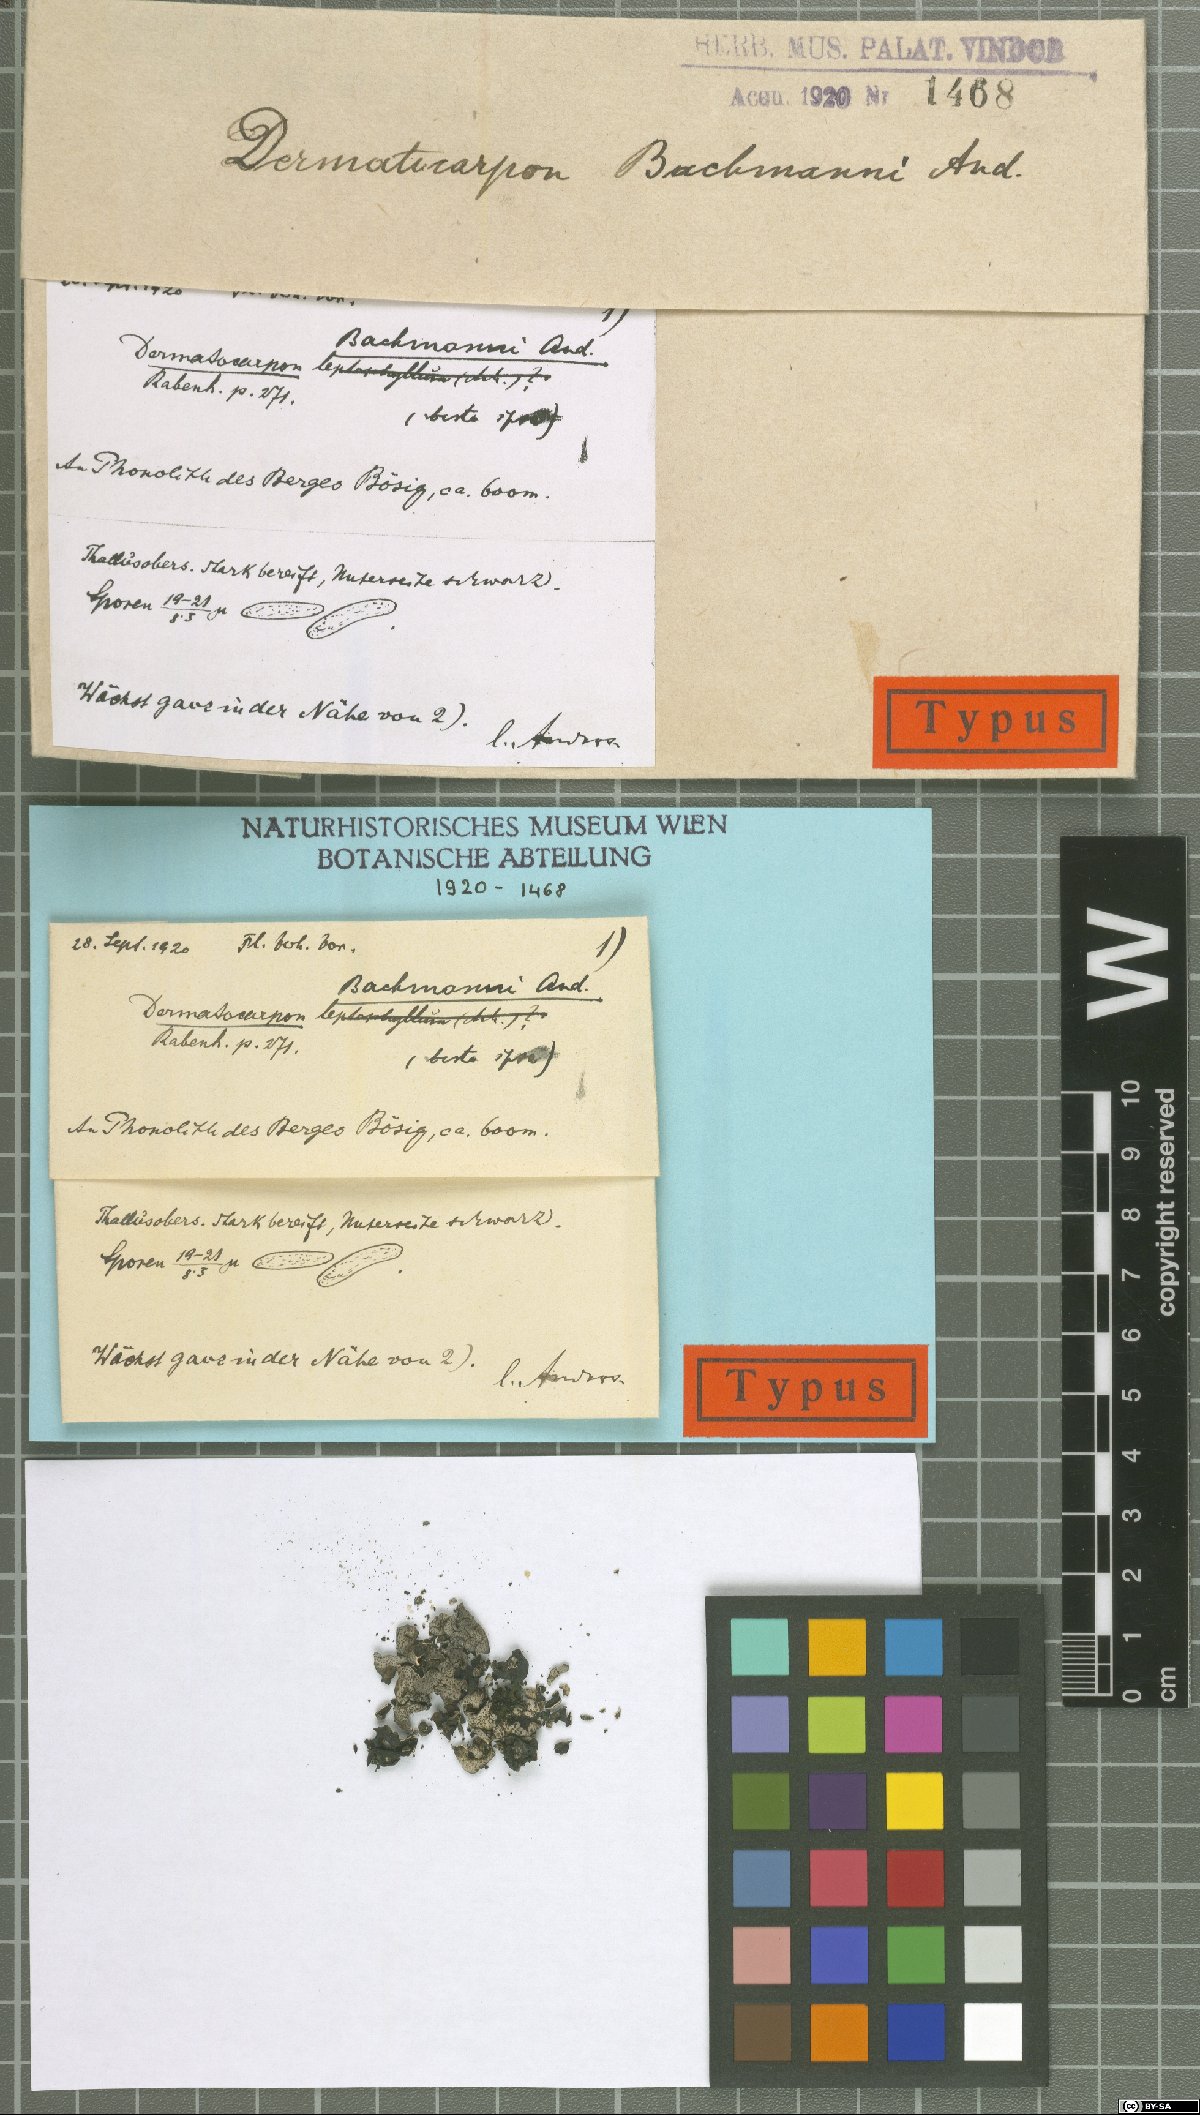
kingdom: Fungi
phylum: Ascomycota
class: Eurotiomycetes
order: Verrucariales
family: Verrucariaceae
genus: Dermatocarpon
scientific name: Dermatocarpon bachmannii
